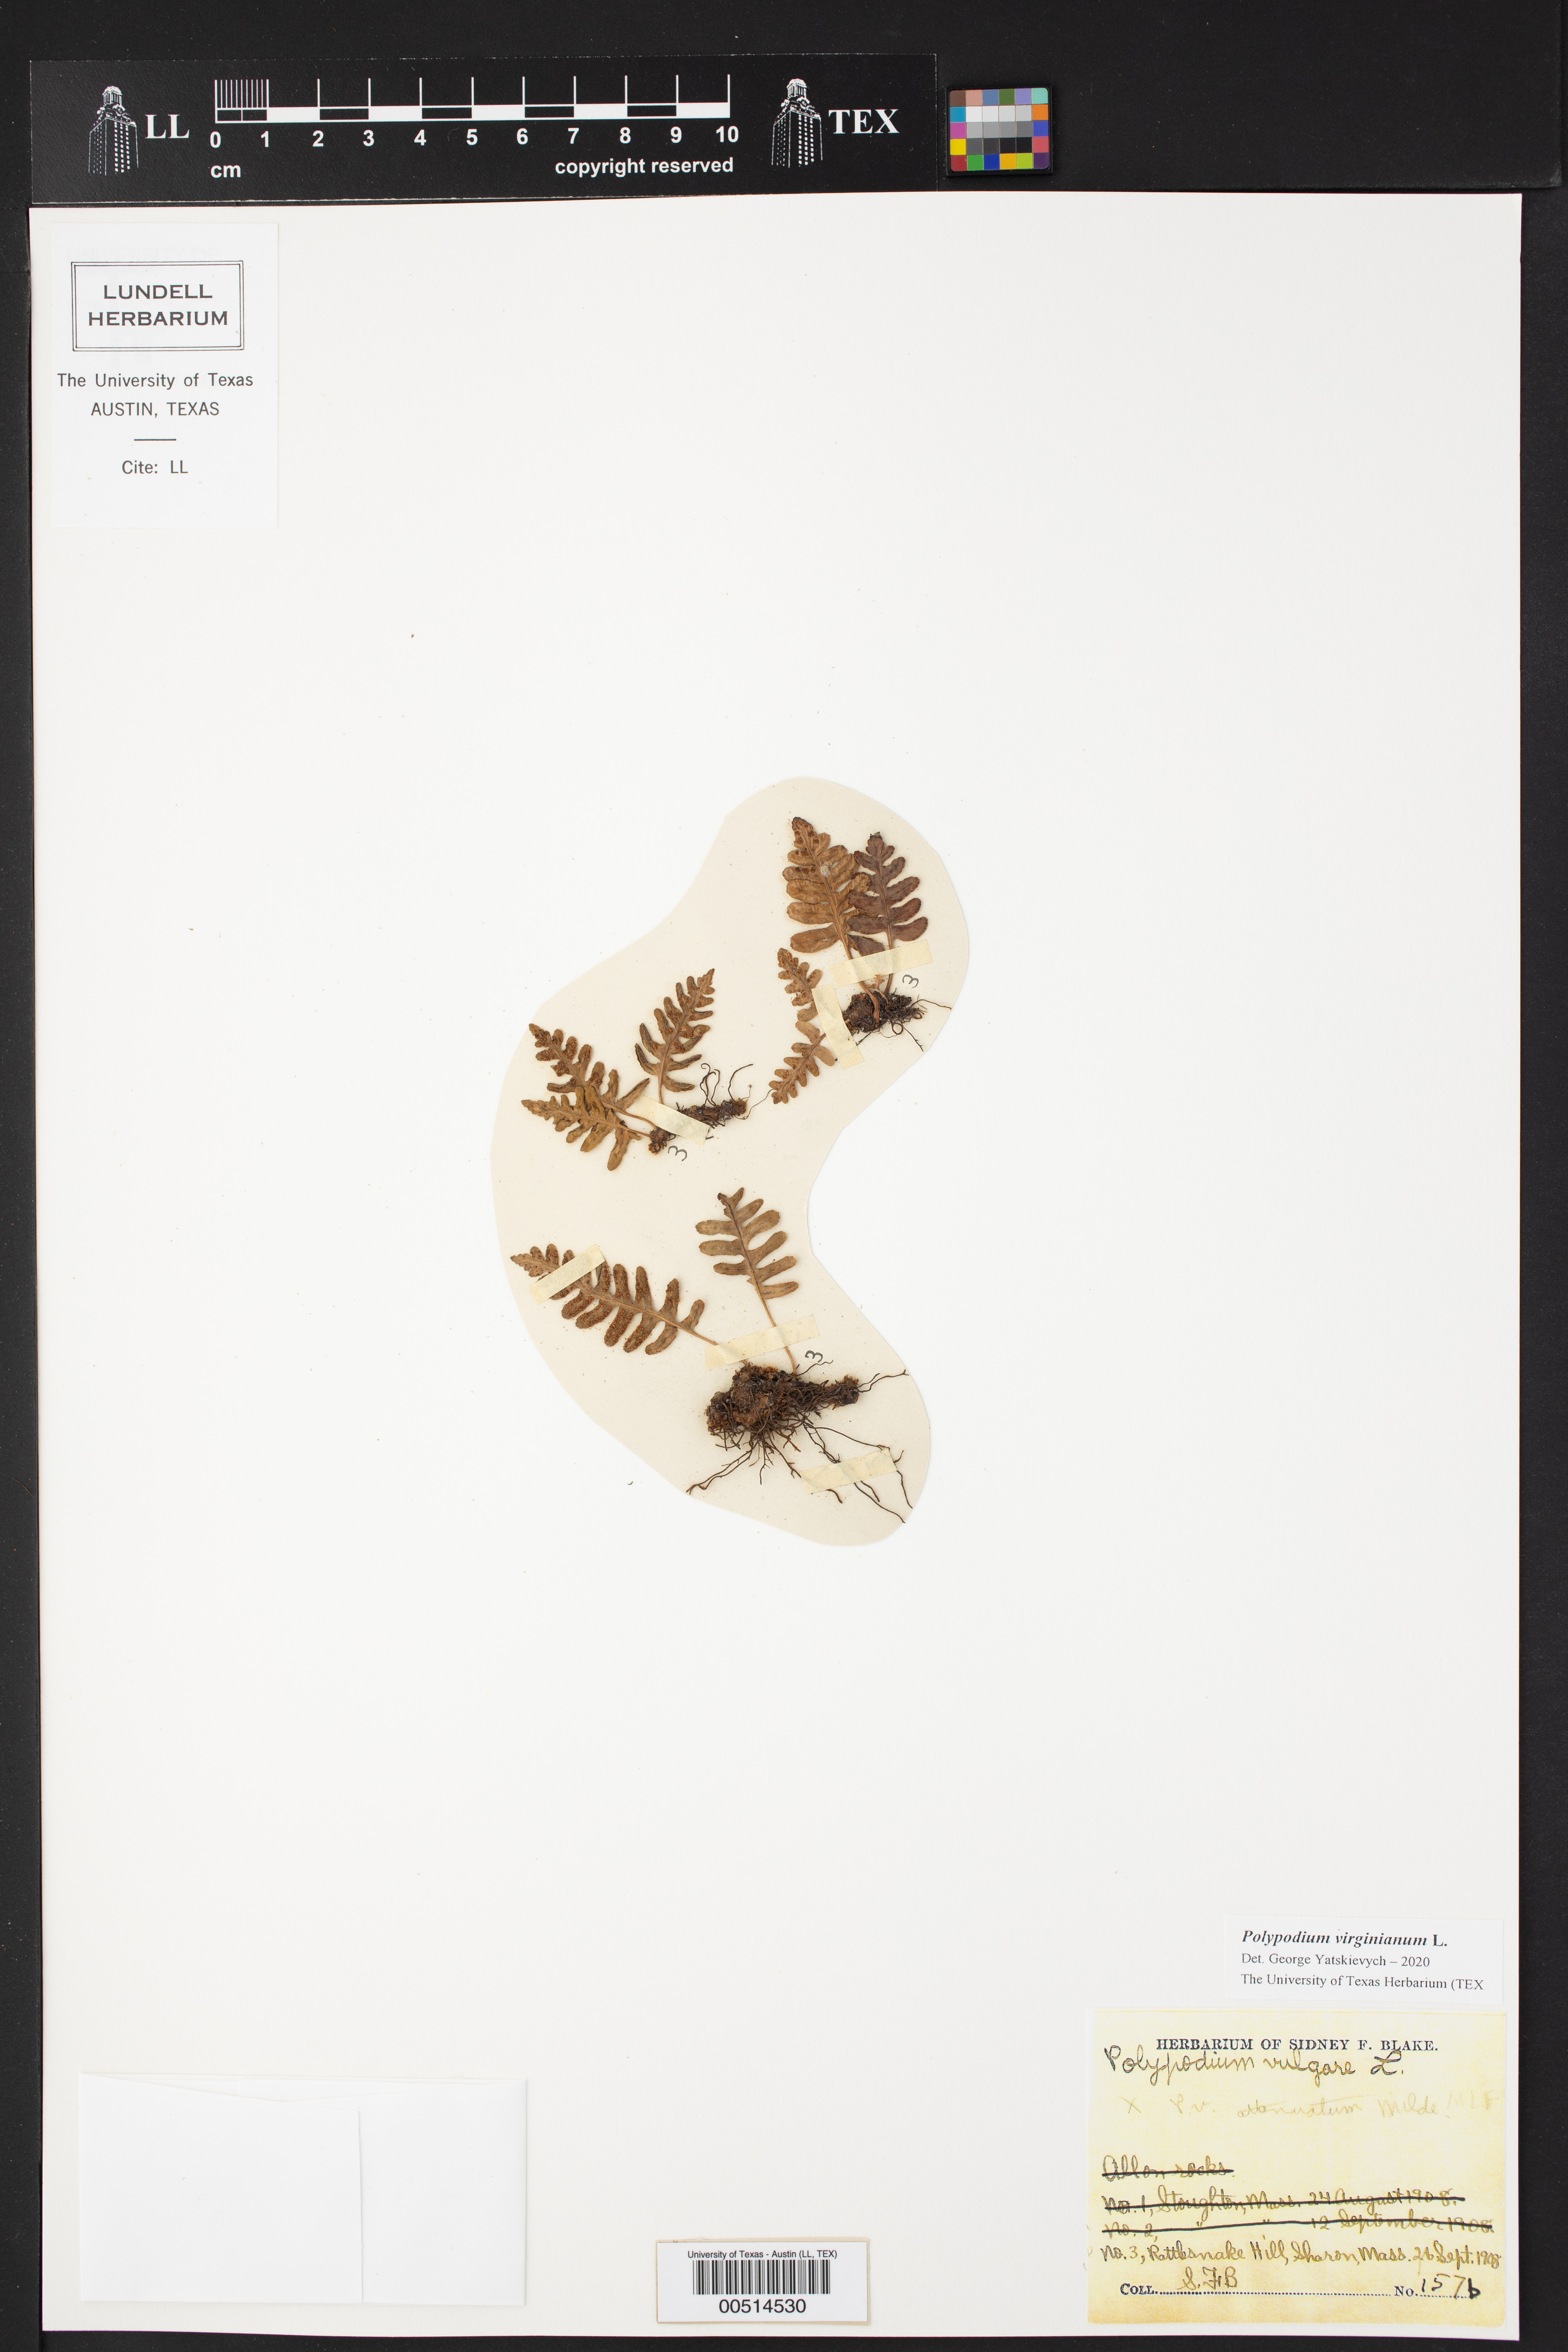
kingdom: Plantae
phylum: Tracheophyta
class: Polypodiopsida
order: Polypodiales
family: Polypodiaceae
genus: Polypodium
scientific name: Polypodium virginianum
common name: American wall fern
